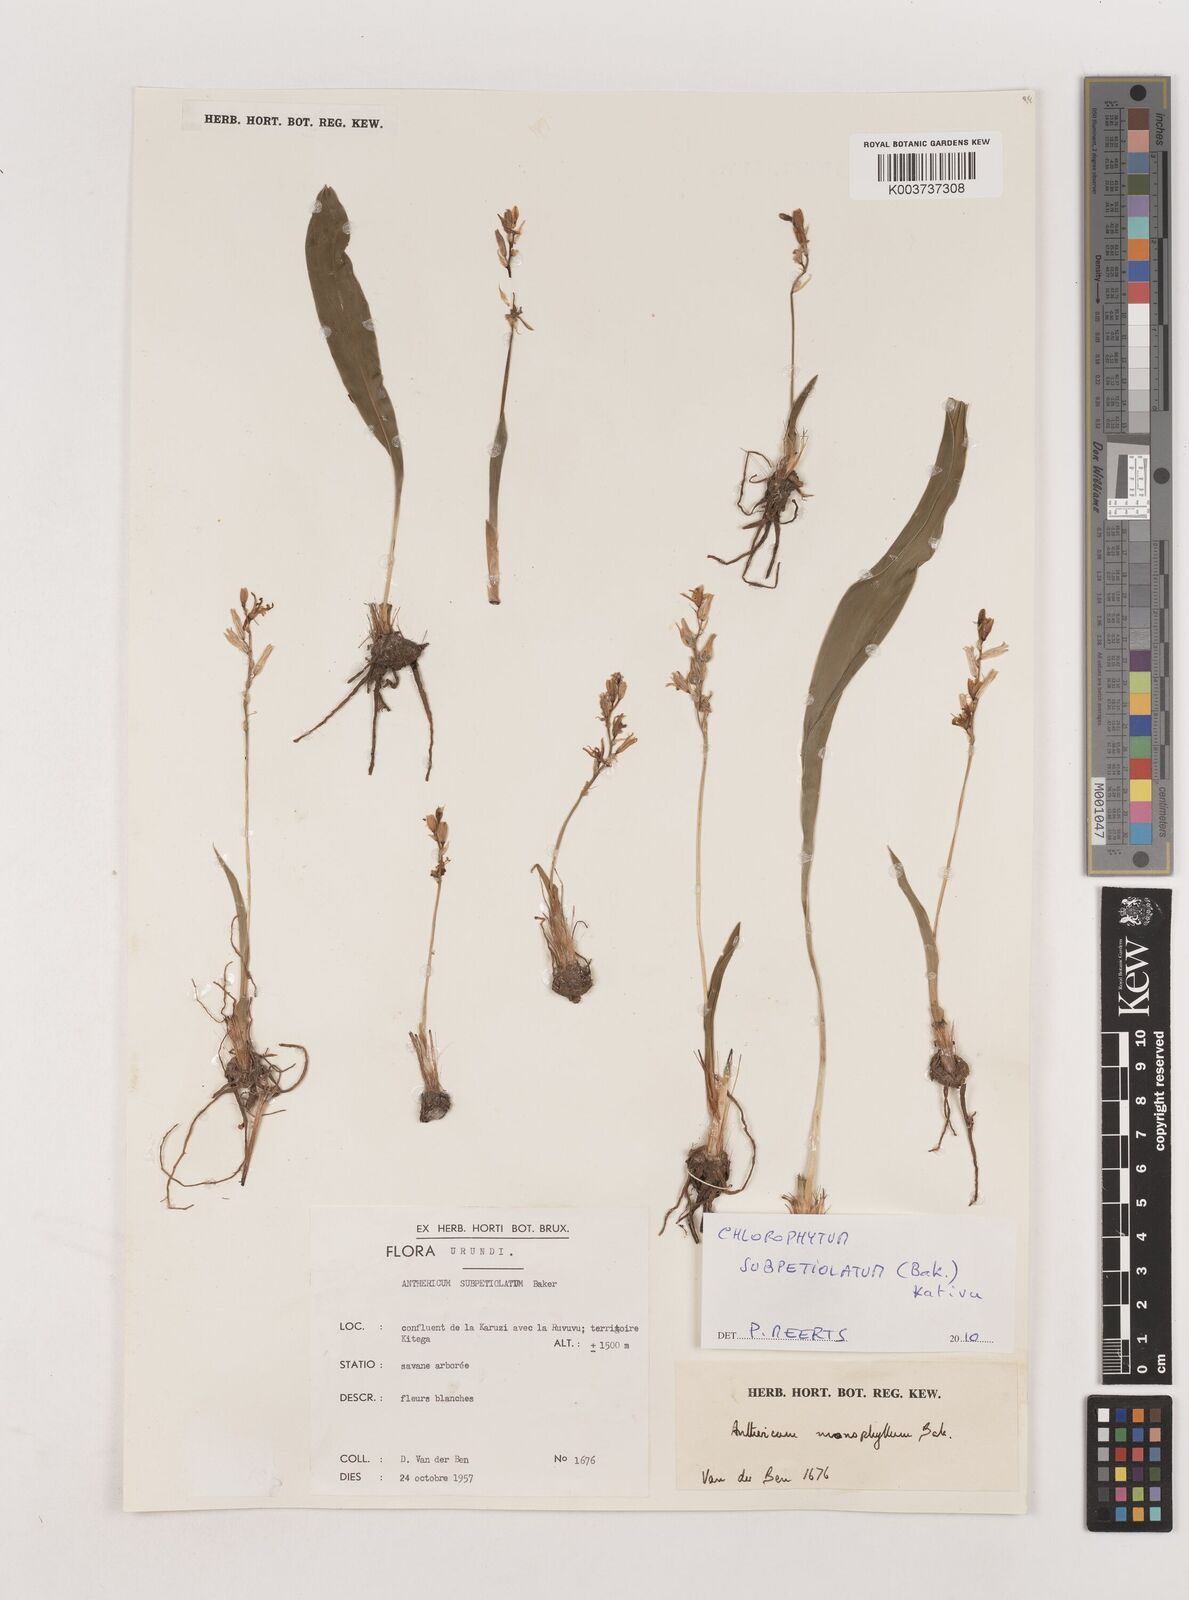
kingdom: Plantae
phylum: Tracheophyta
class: Liliopsida
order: Asparagales
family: Asparagaceae
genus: Chlorophytum
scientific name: Chlorophytum subpetiolatum
